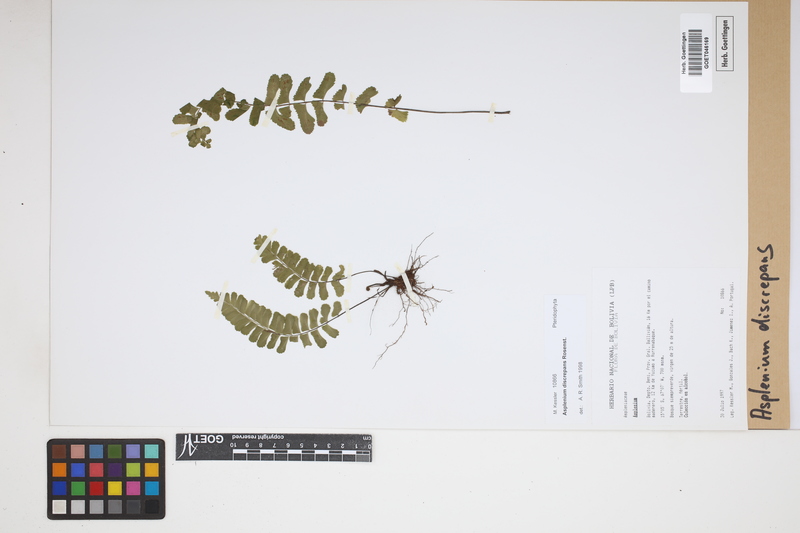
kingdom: Plantae
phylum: Tracheophyta
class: Polypodiopsida
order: Polypodiales
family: Aspleniaceae
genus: Asplenium
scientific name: Asplenium discrepans
